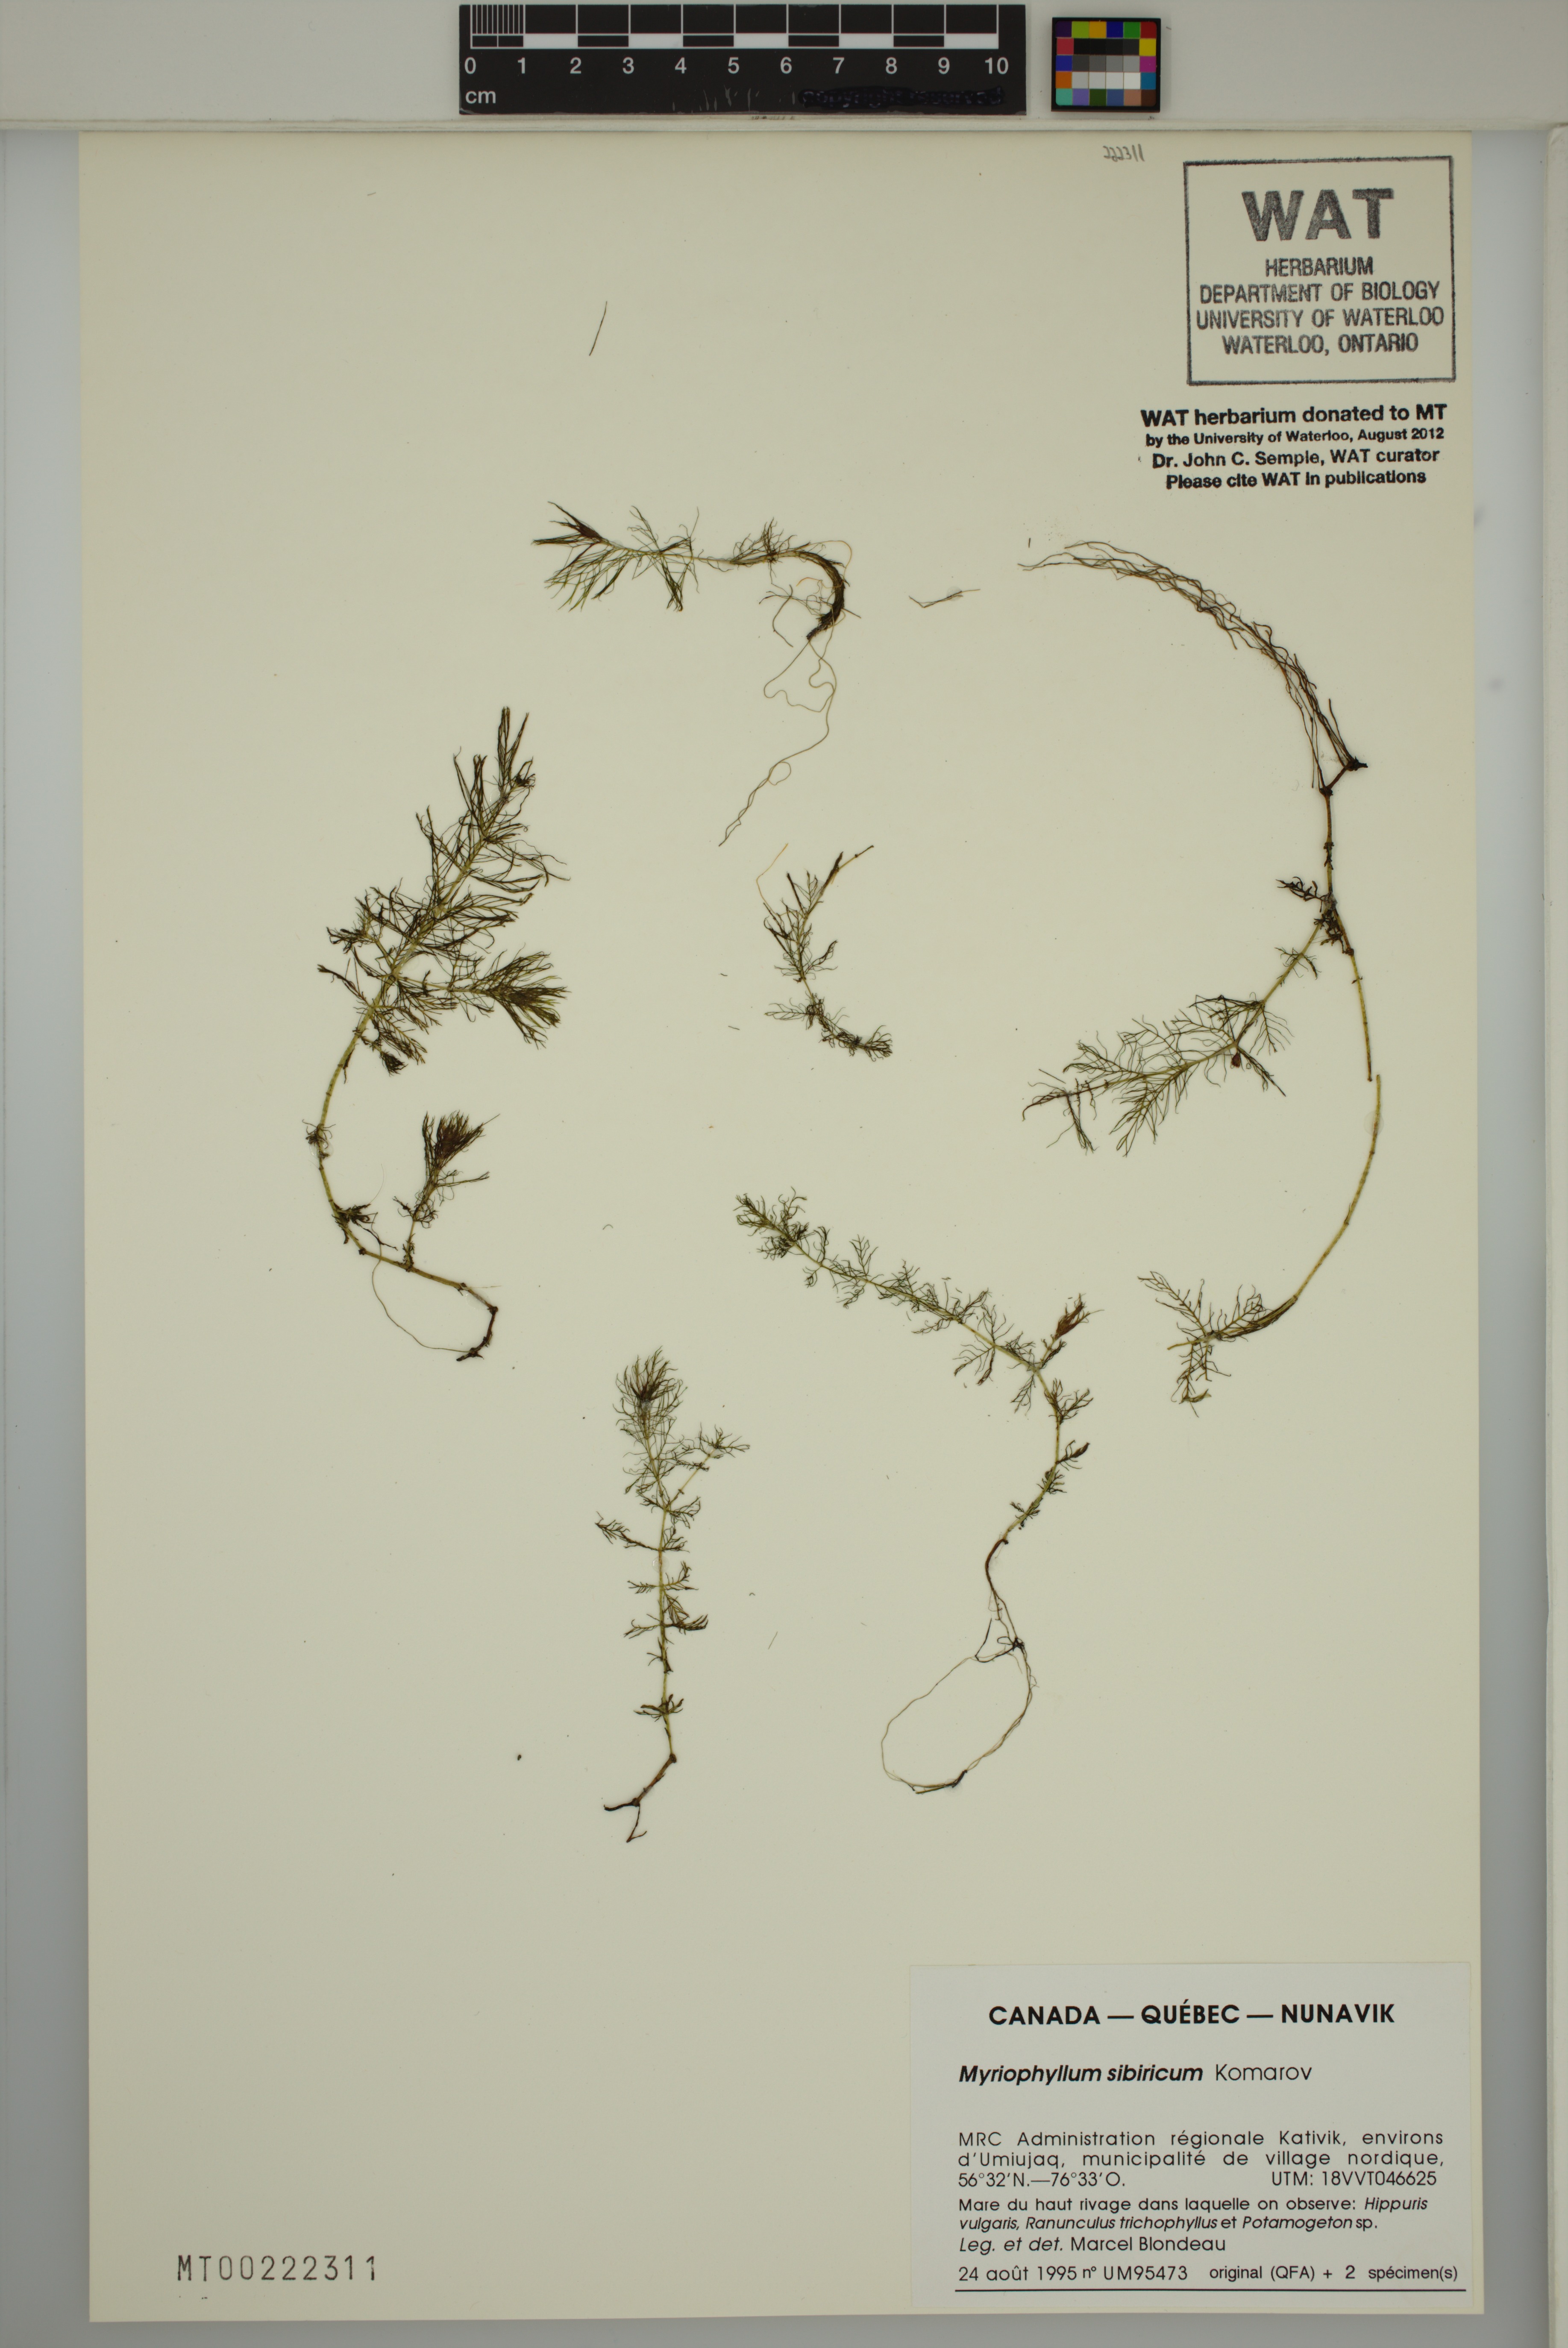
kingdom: Plantae
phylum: Tracheophyta
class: Magnoliopsida
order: Saxifragales
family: Haloragaceae
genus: Myriophyllum
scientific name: Myriophyllum sibiricum
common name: Siberian water-milfoil
